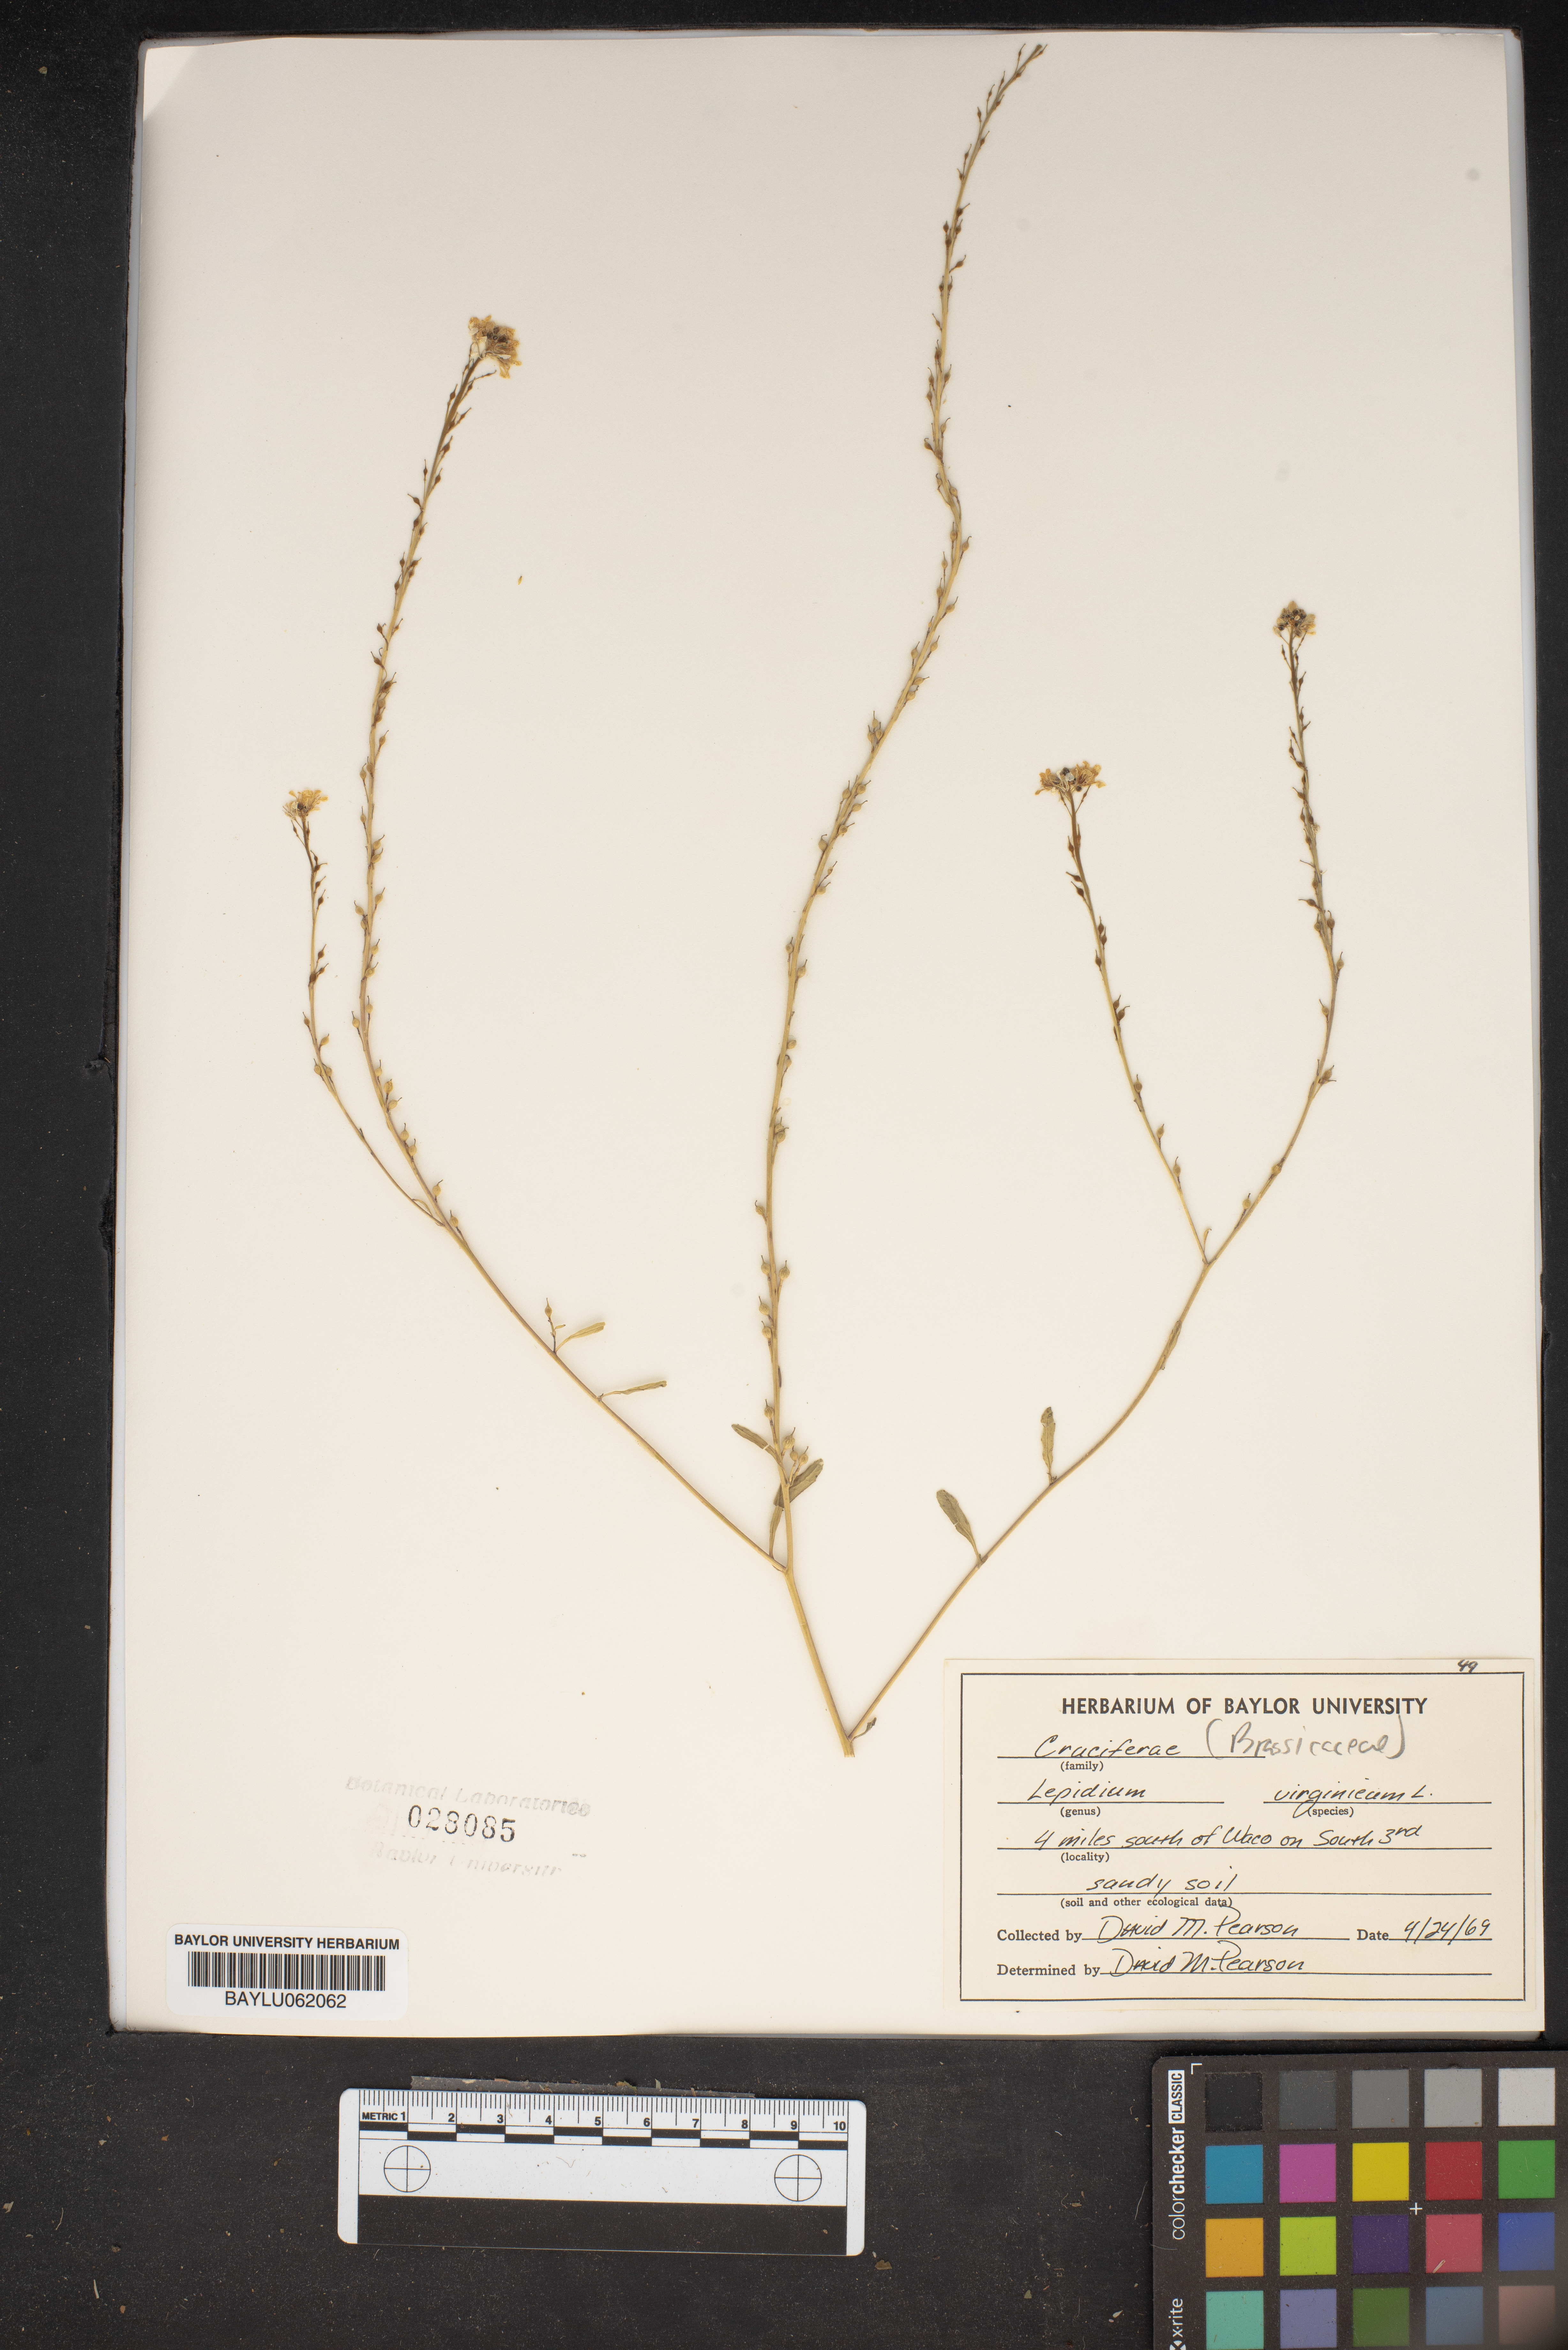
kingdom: Plantae
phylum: Tracheophyta
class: Magnoliopsida
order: Brassicales
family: Brassicaceae
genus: Lepidium
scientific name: Lepidium virginicum
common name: Least pepperwort
